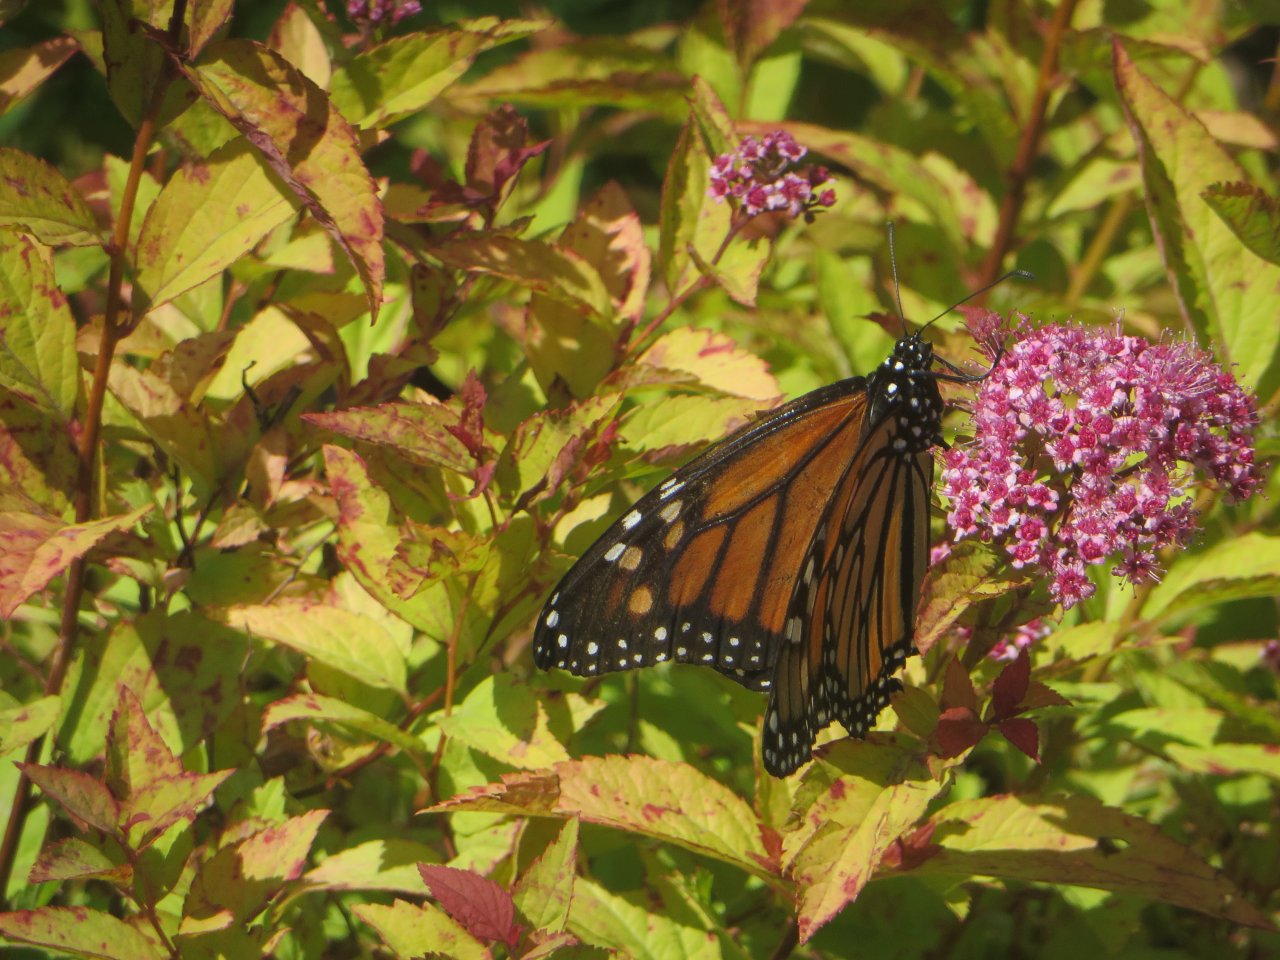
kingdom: Animalia
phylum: Arthropoda
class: Insecta
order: Lepidoptera
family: Nymphalidae
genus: Danaus
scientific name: Danaus plexippus
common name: Monarch
